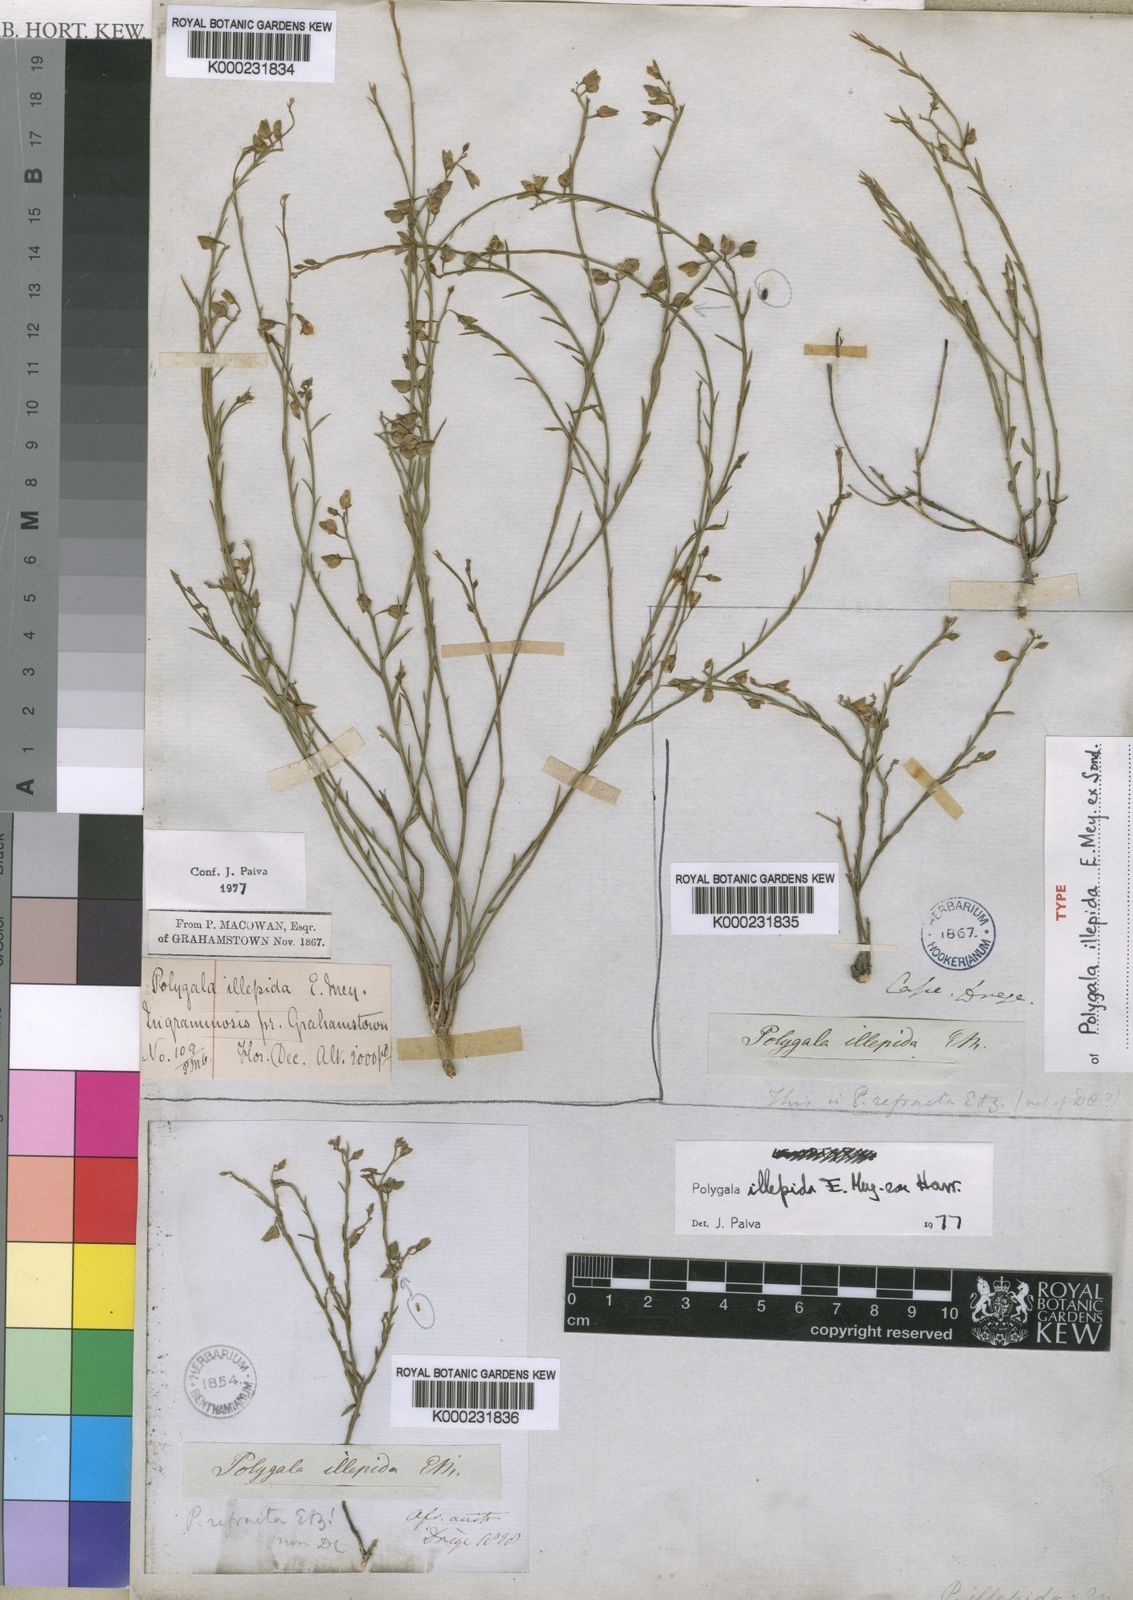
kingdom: Plantae
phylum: Tracheophyta
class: Magnoliopsida
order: Fabales
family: Polygalaceae
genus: Polygala
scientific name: Polygala illepida
